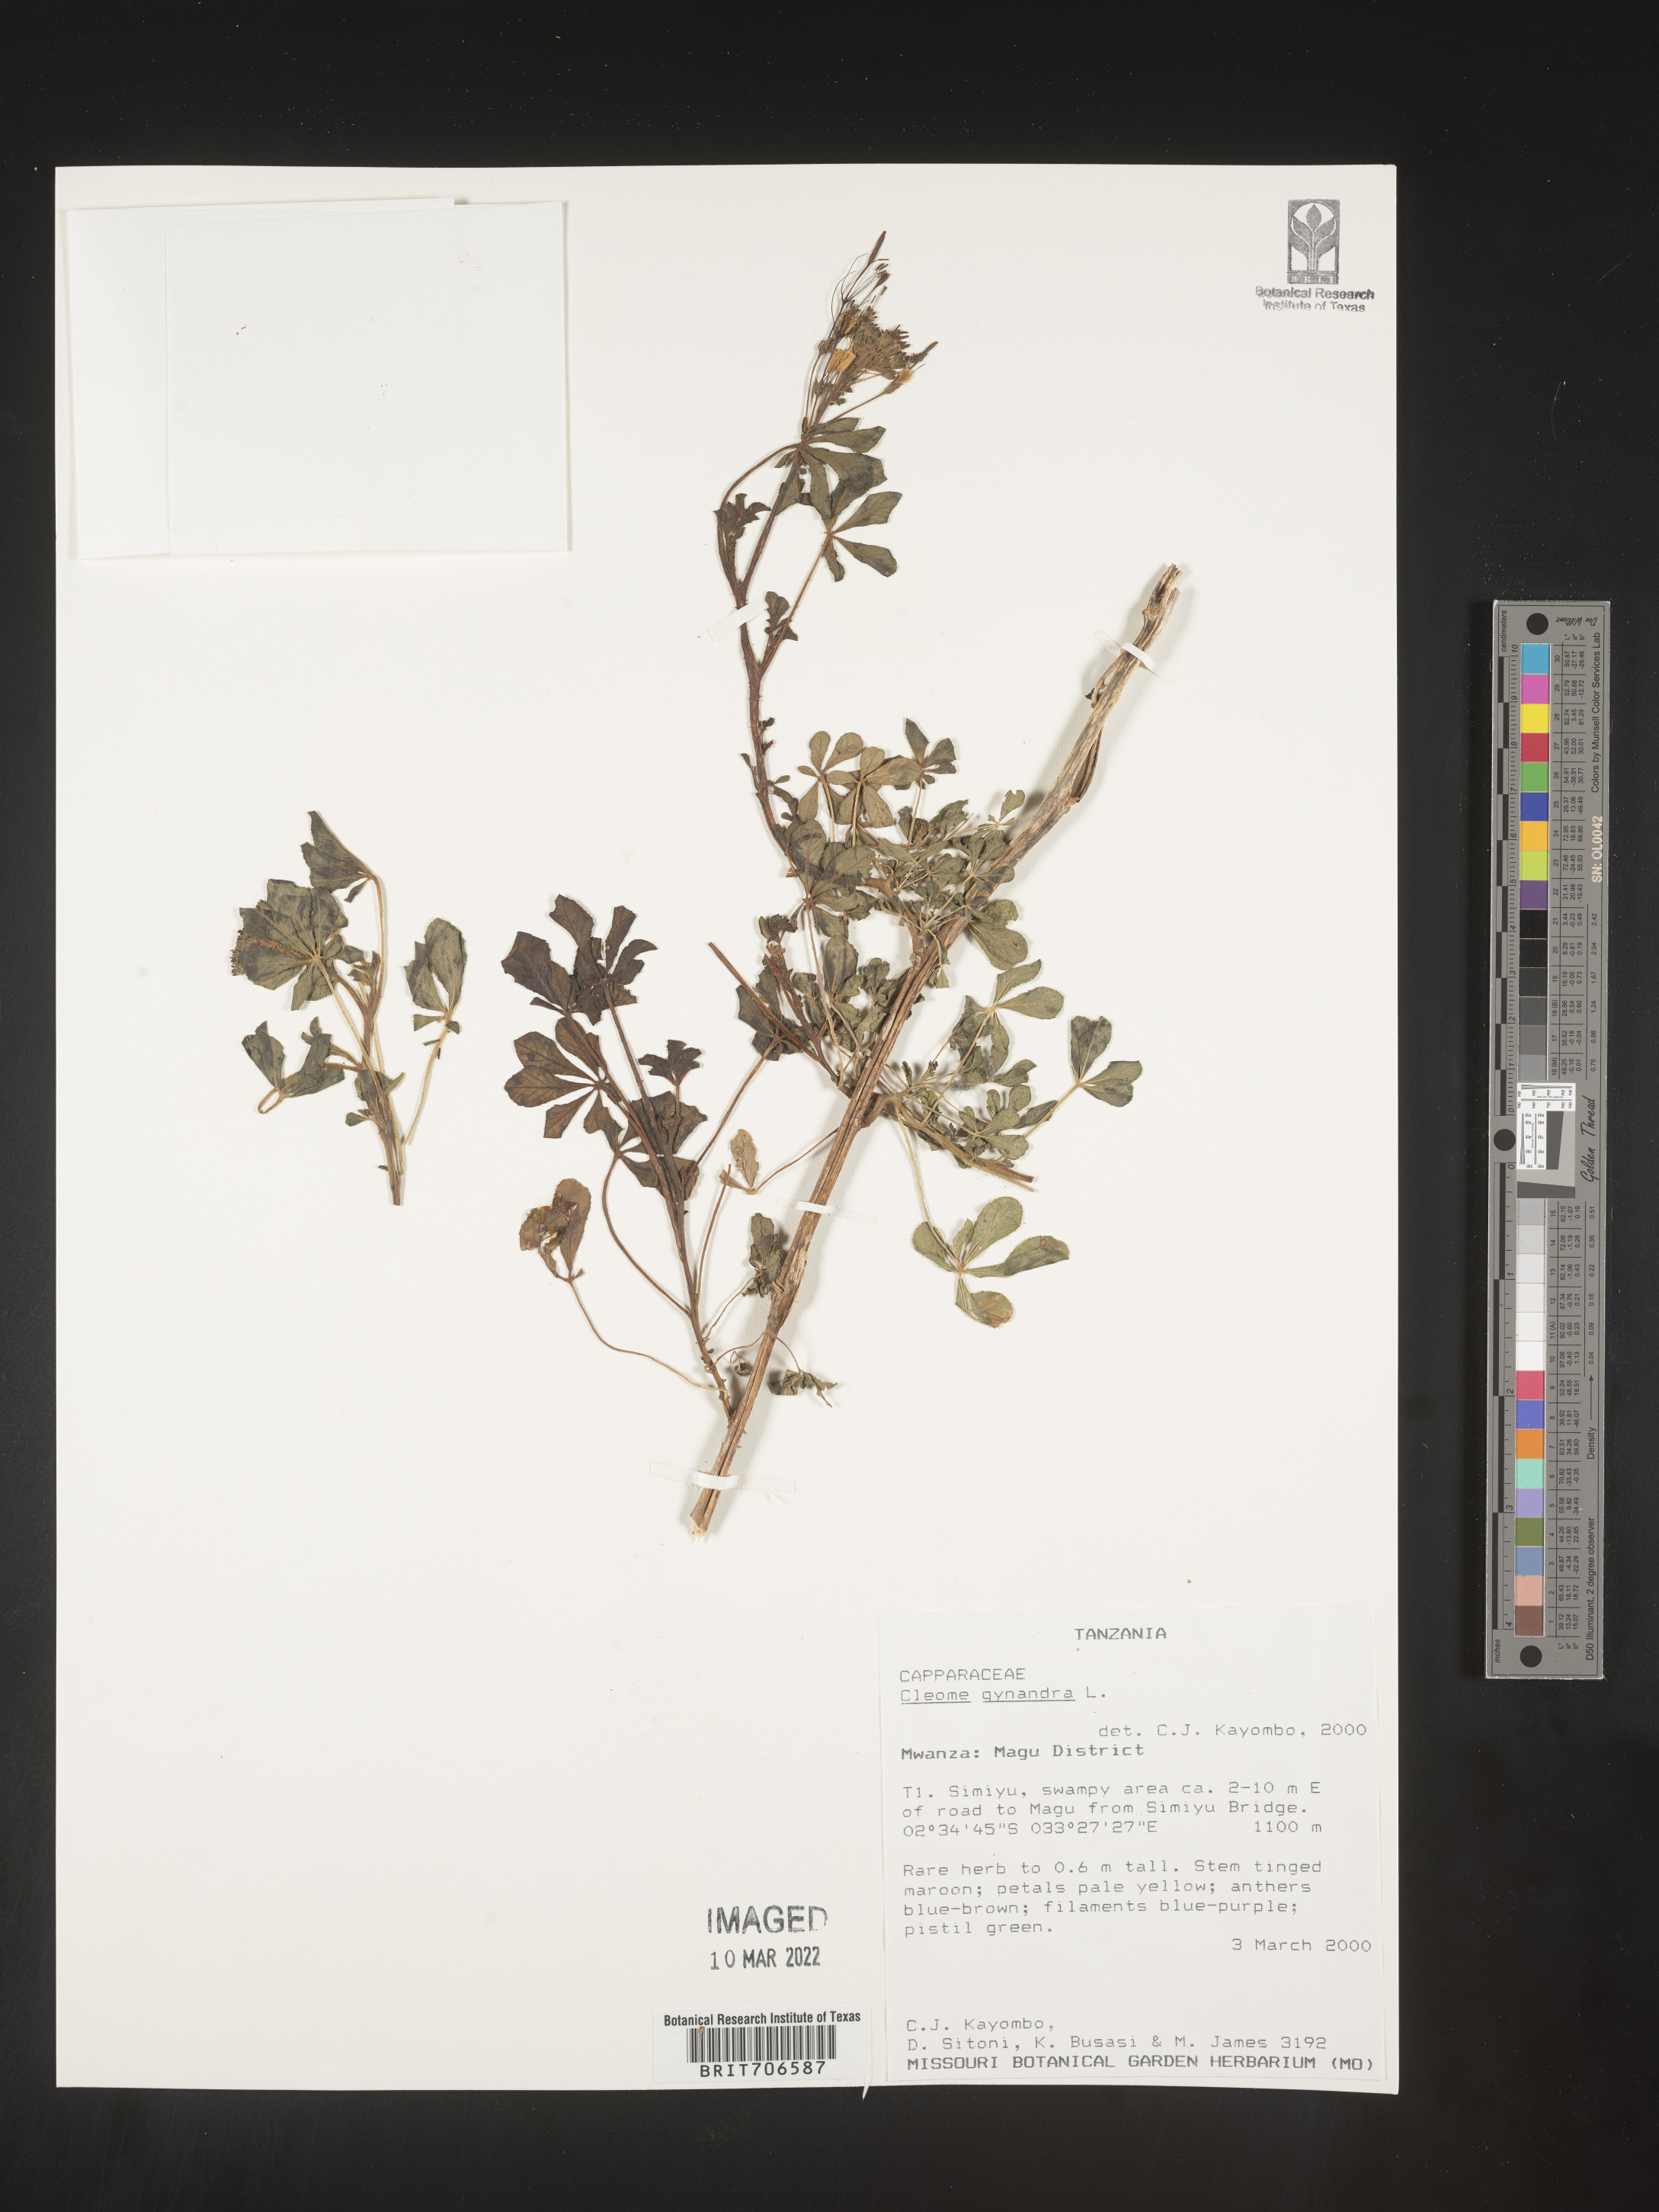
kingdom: Plantae
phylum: Tracheophyta
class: Magnoliopsida
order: Brassicales
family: Cleomaceae
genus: Cleome
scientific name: Cleome
